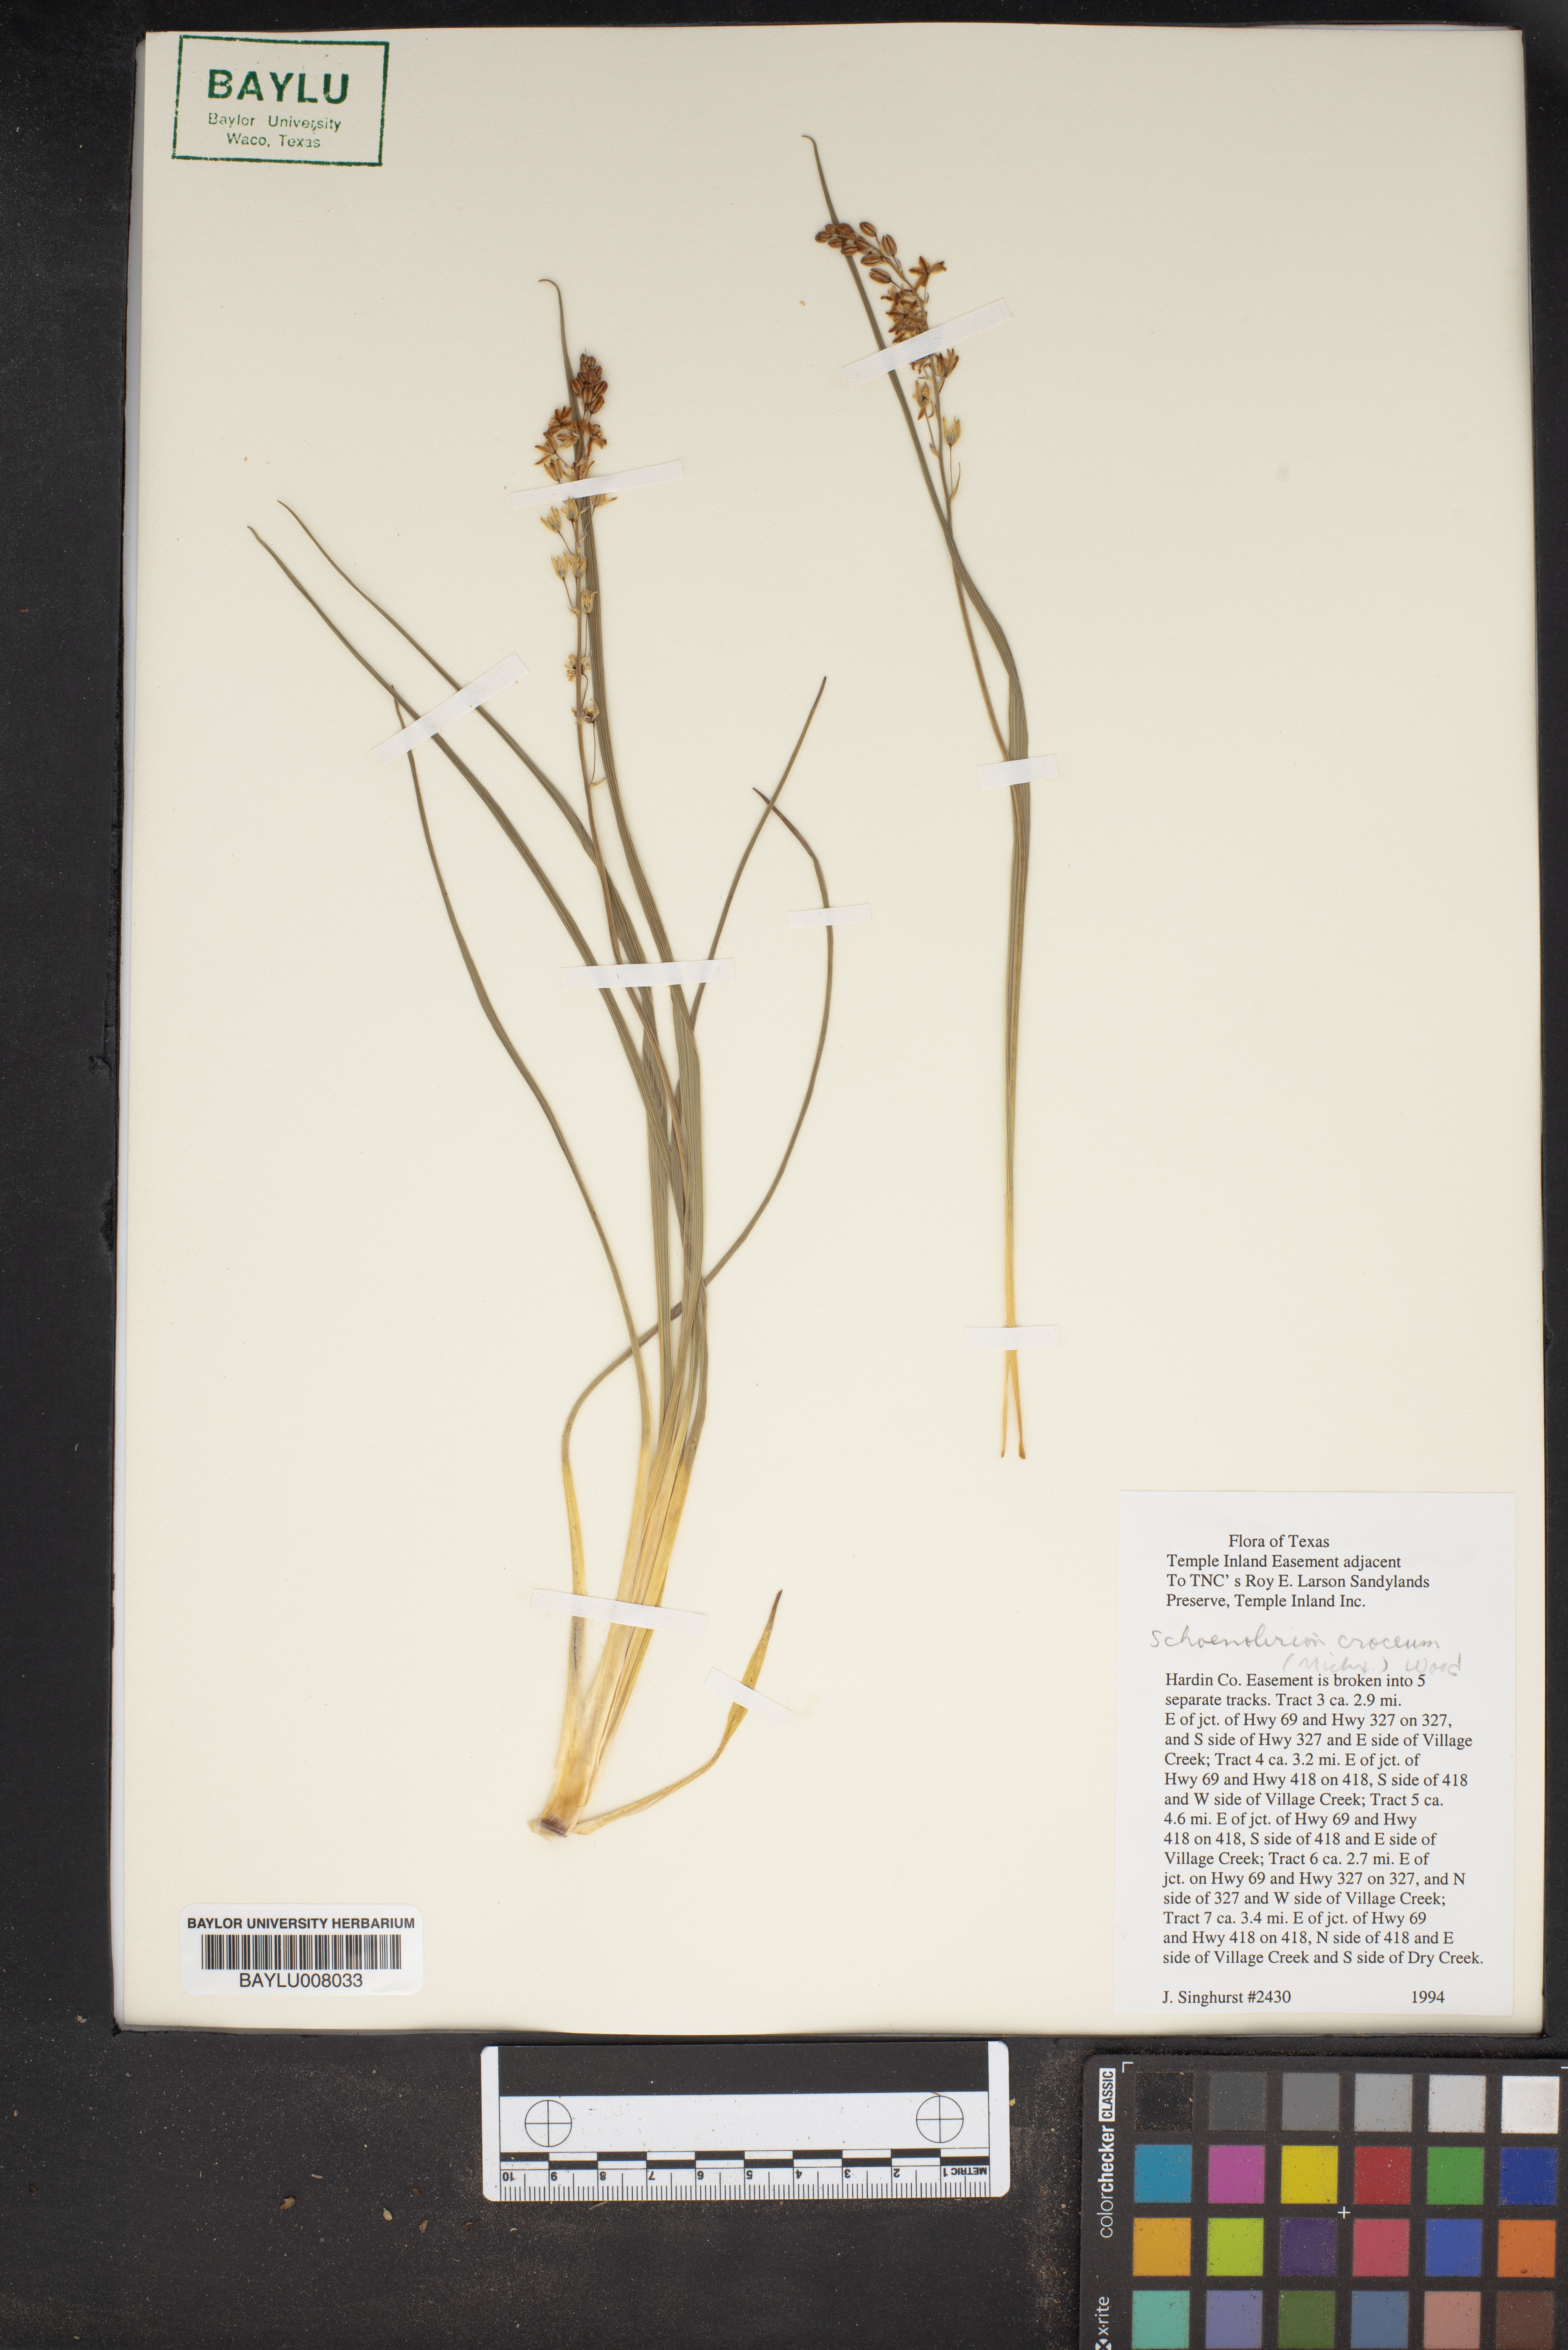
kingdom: Plantae
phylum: Tracheophyta
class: Liliopsida
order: Asparagales
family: Asparagaceae
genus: Schoenolirion
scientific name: Schoenolirion croceum
